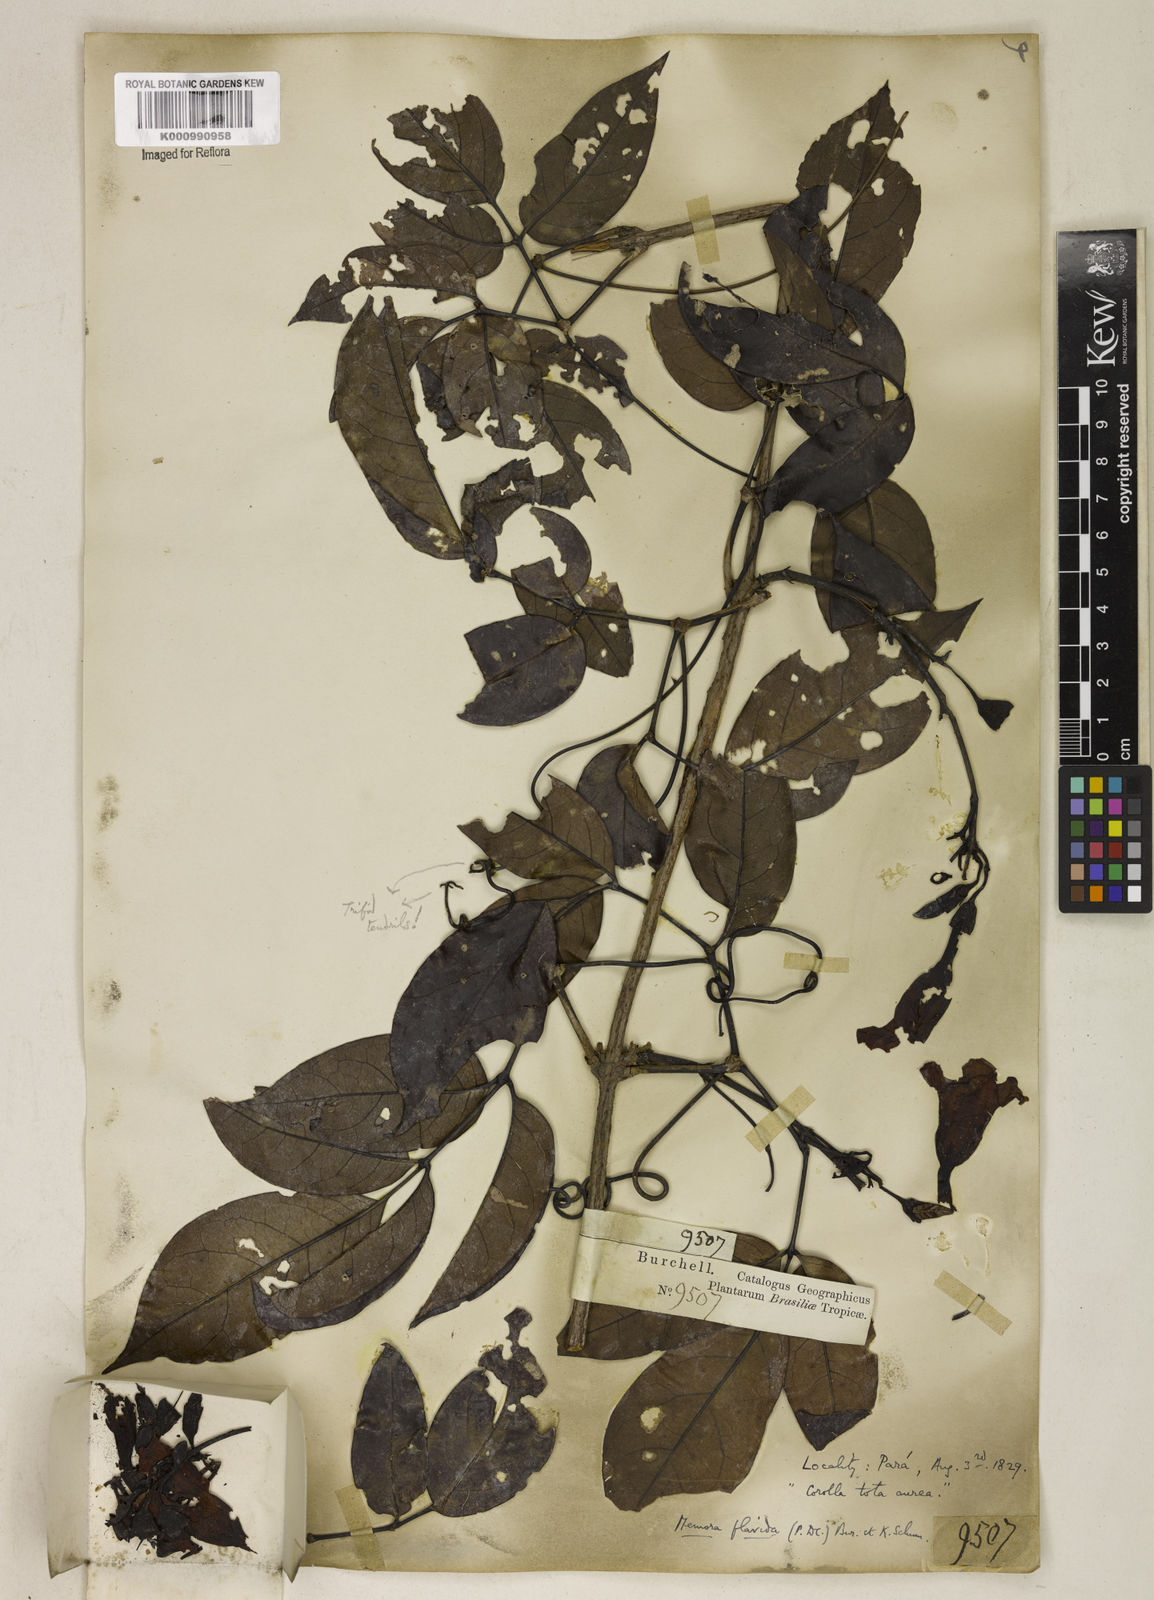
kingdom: Plantae
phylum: Tracheophyta
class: Magnoliopsida
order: Lamiales
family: Bignoniaceae
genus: Adenocalymma
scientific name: Adenocalymma neoflavidum
